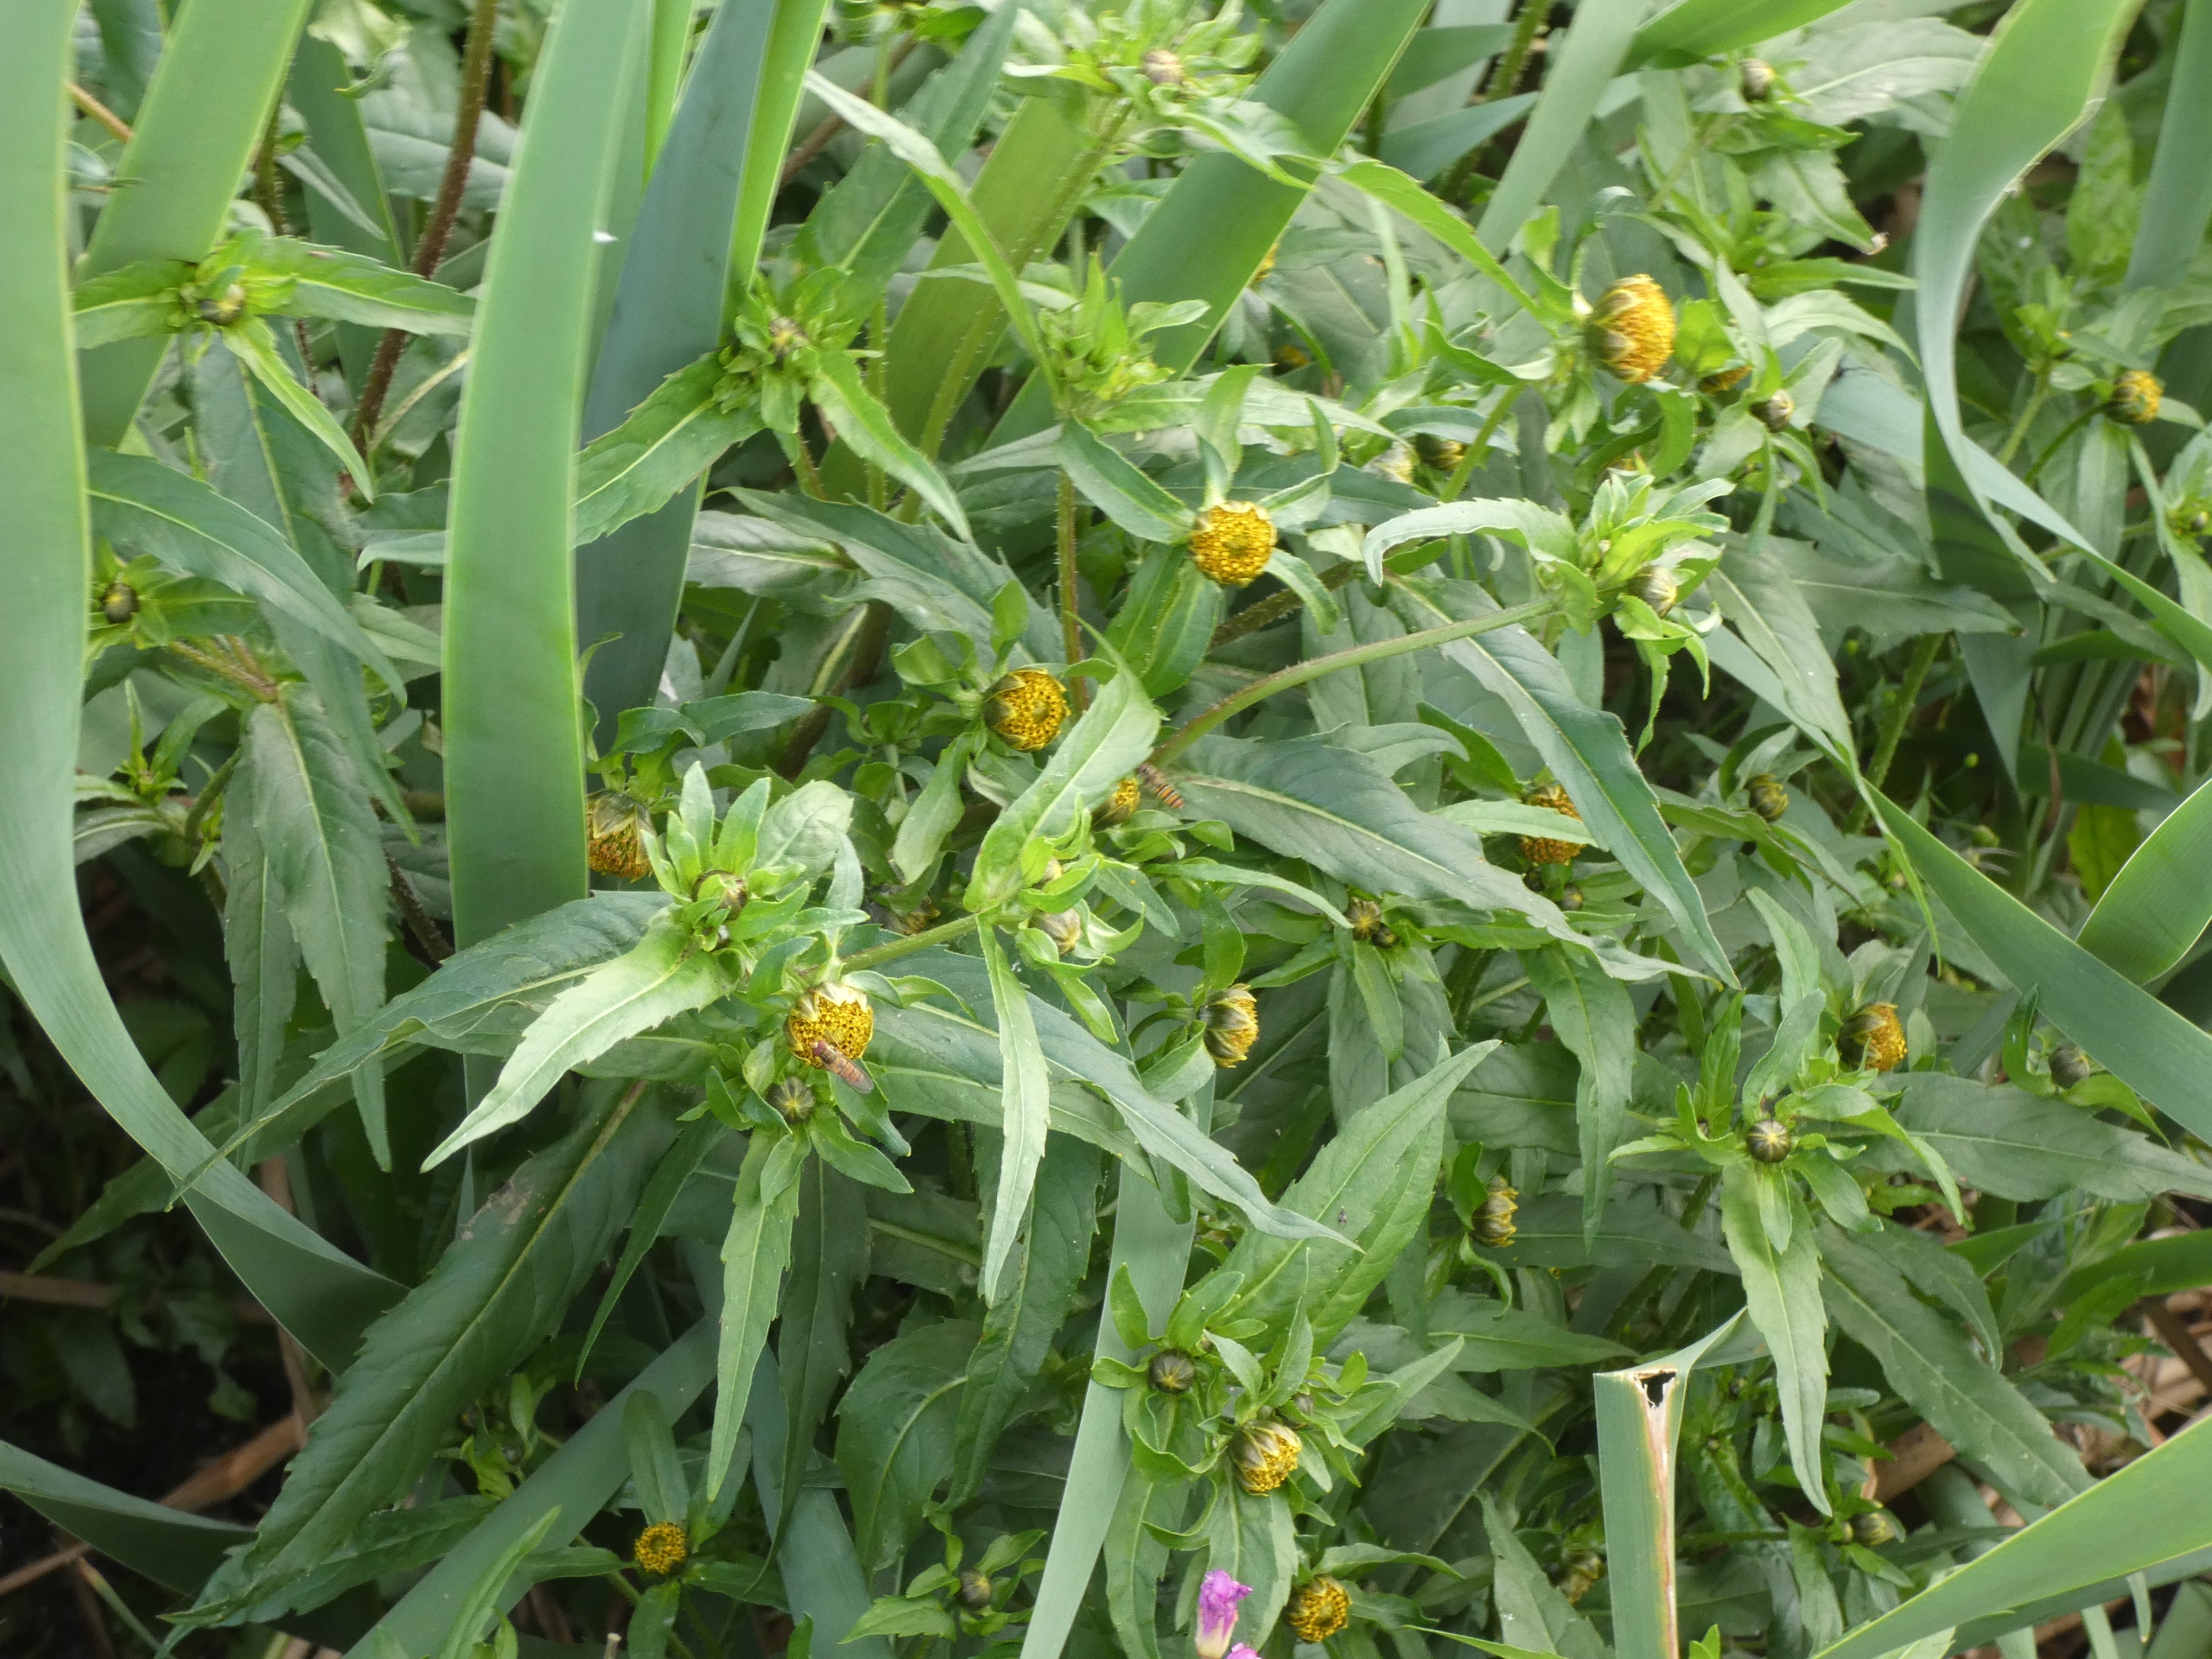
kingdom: Plantae
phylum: Tracheophyta
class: Magnoliopsida
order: Asterales
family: Asteraceae
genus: Bidens
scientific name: Bidens cernua
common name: Nikkende brøndsel
